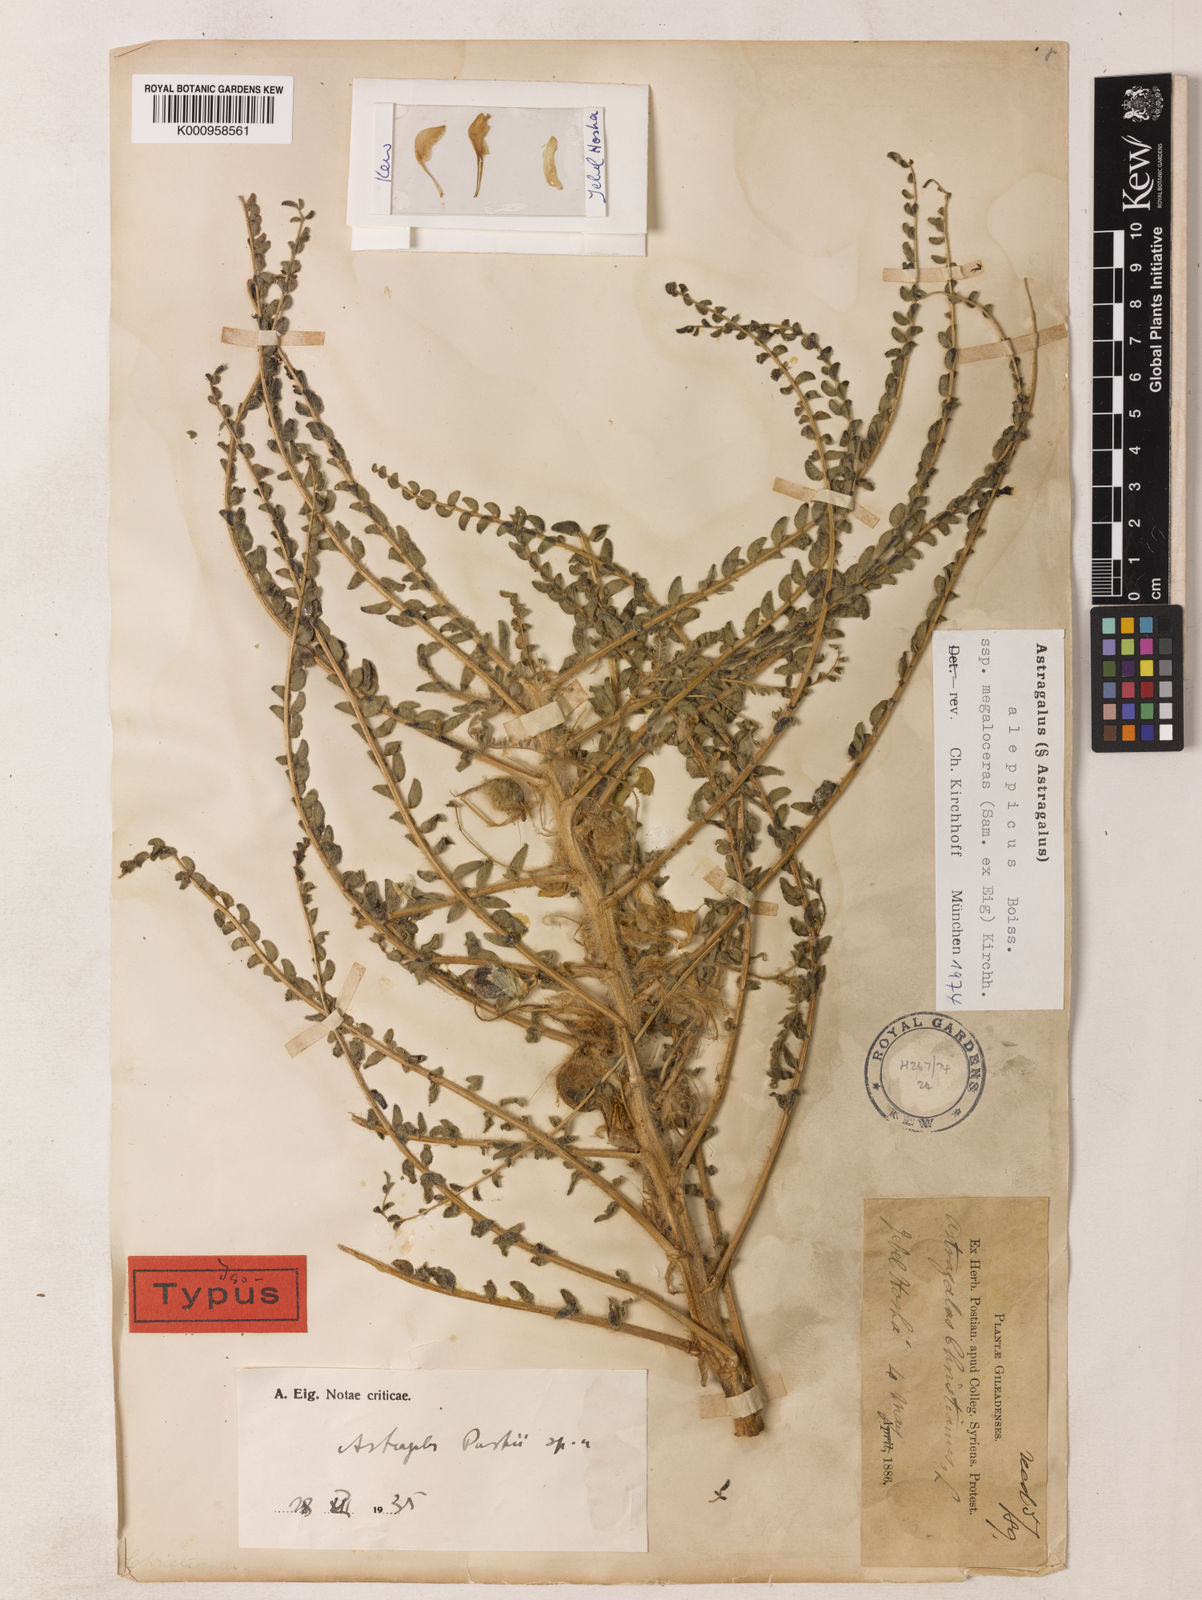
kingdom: Plantae
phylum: Tracheophyta
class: Magnoliopsida
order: Fabales
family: Fabaceae
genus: Astragalus
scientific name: Astragalus aleppicus
